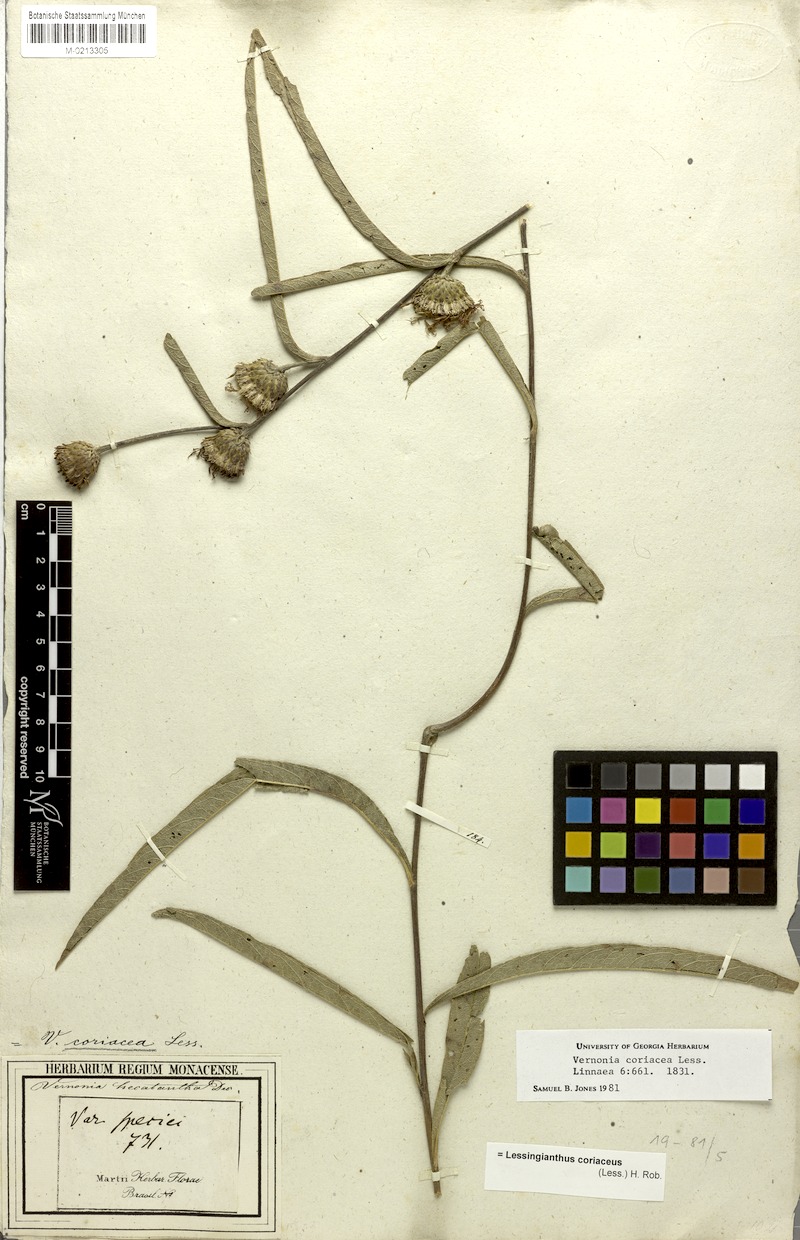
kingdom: Plantae
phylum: Tracheophyta
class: Magnoliopsida
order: Asterales
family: Asteraceae
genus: Lessingianthus
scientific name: Lessingianthus coriaceus
